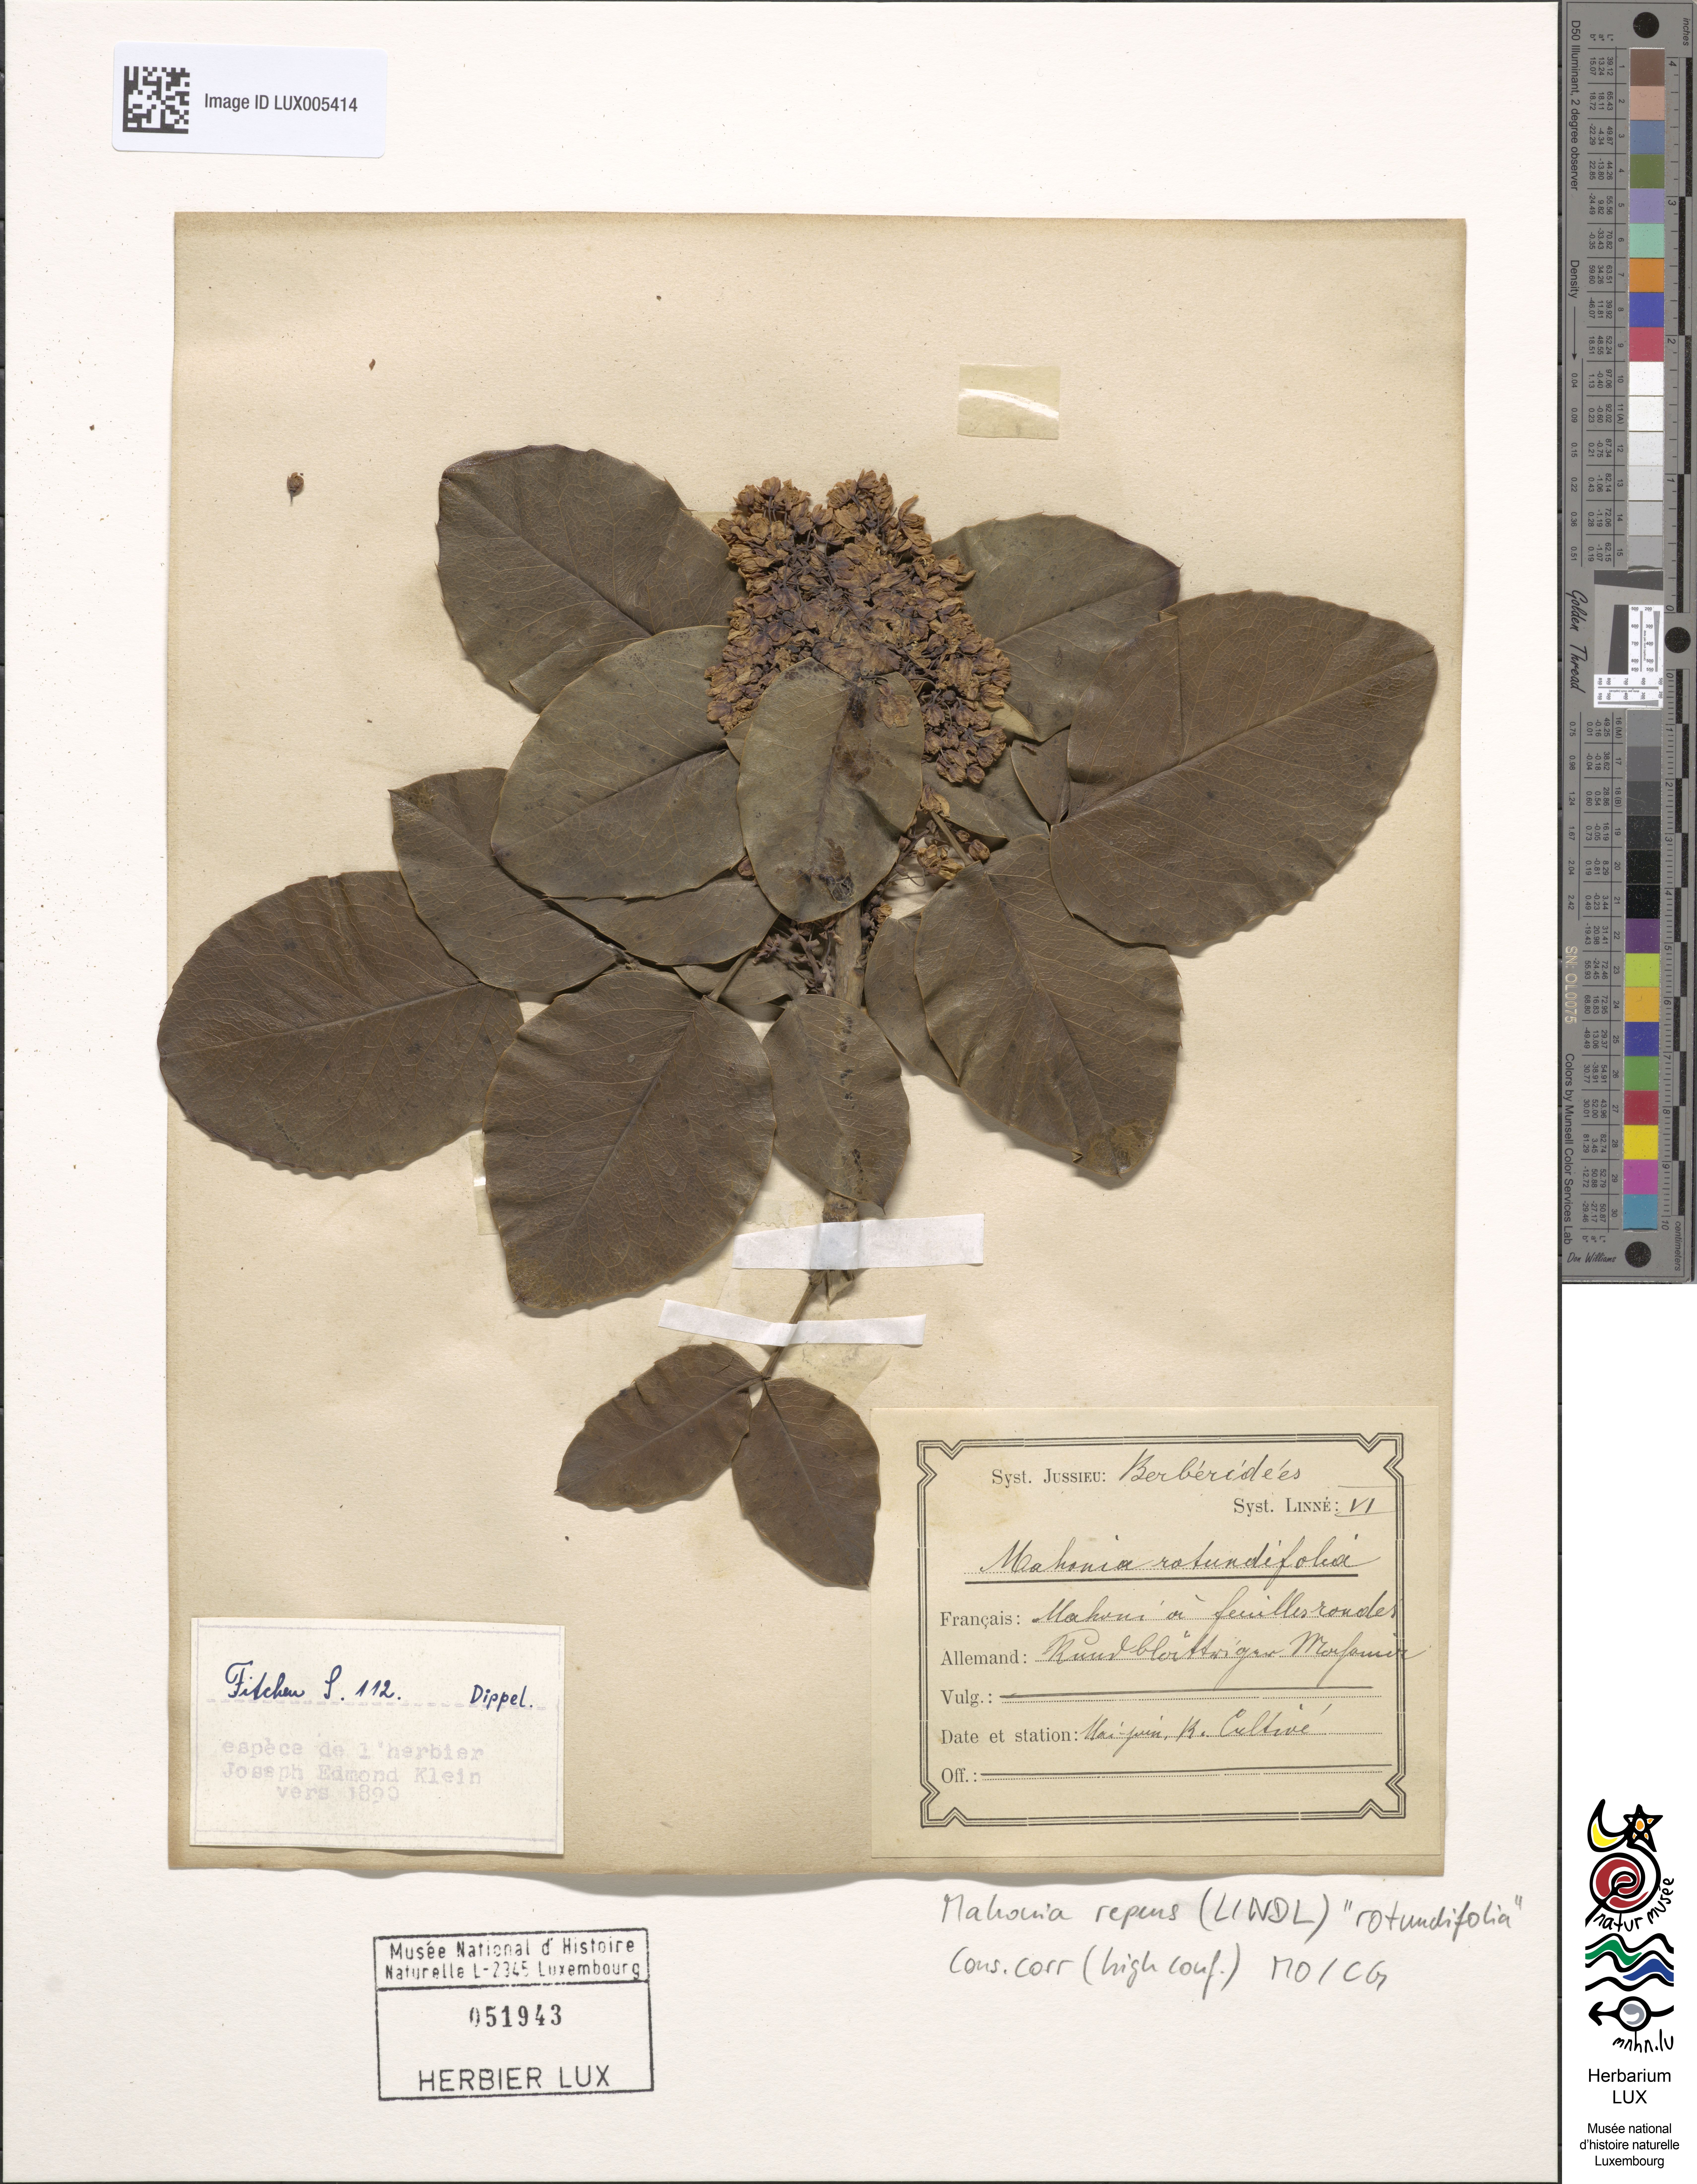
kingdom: Plantae
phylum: Tracheophyta
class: Magnoliopsida
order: Ranunculales
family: Berberidaceae
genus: Mahonia
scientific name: Mahonia repens
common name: Creeping oregon-grape
